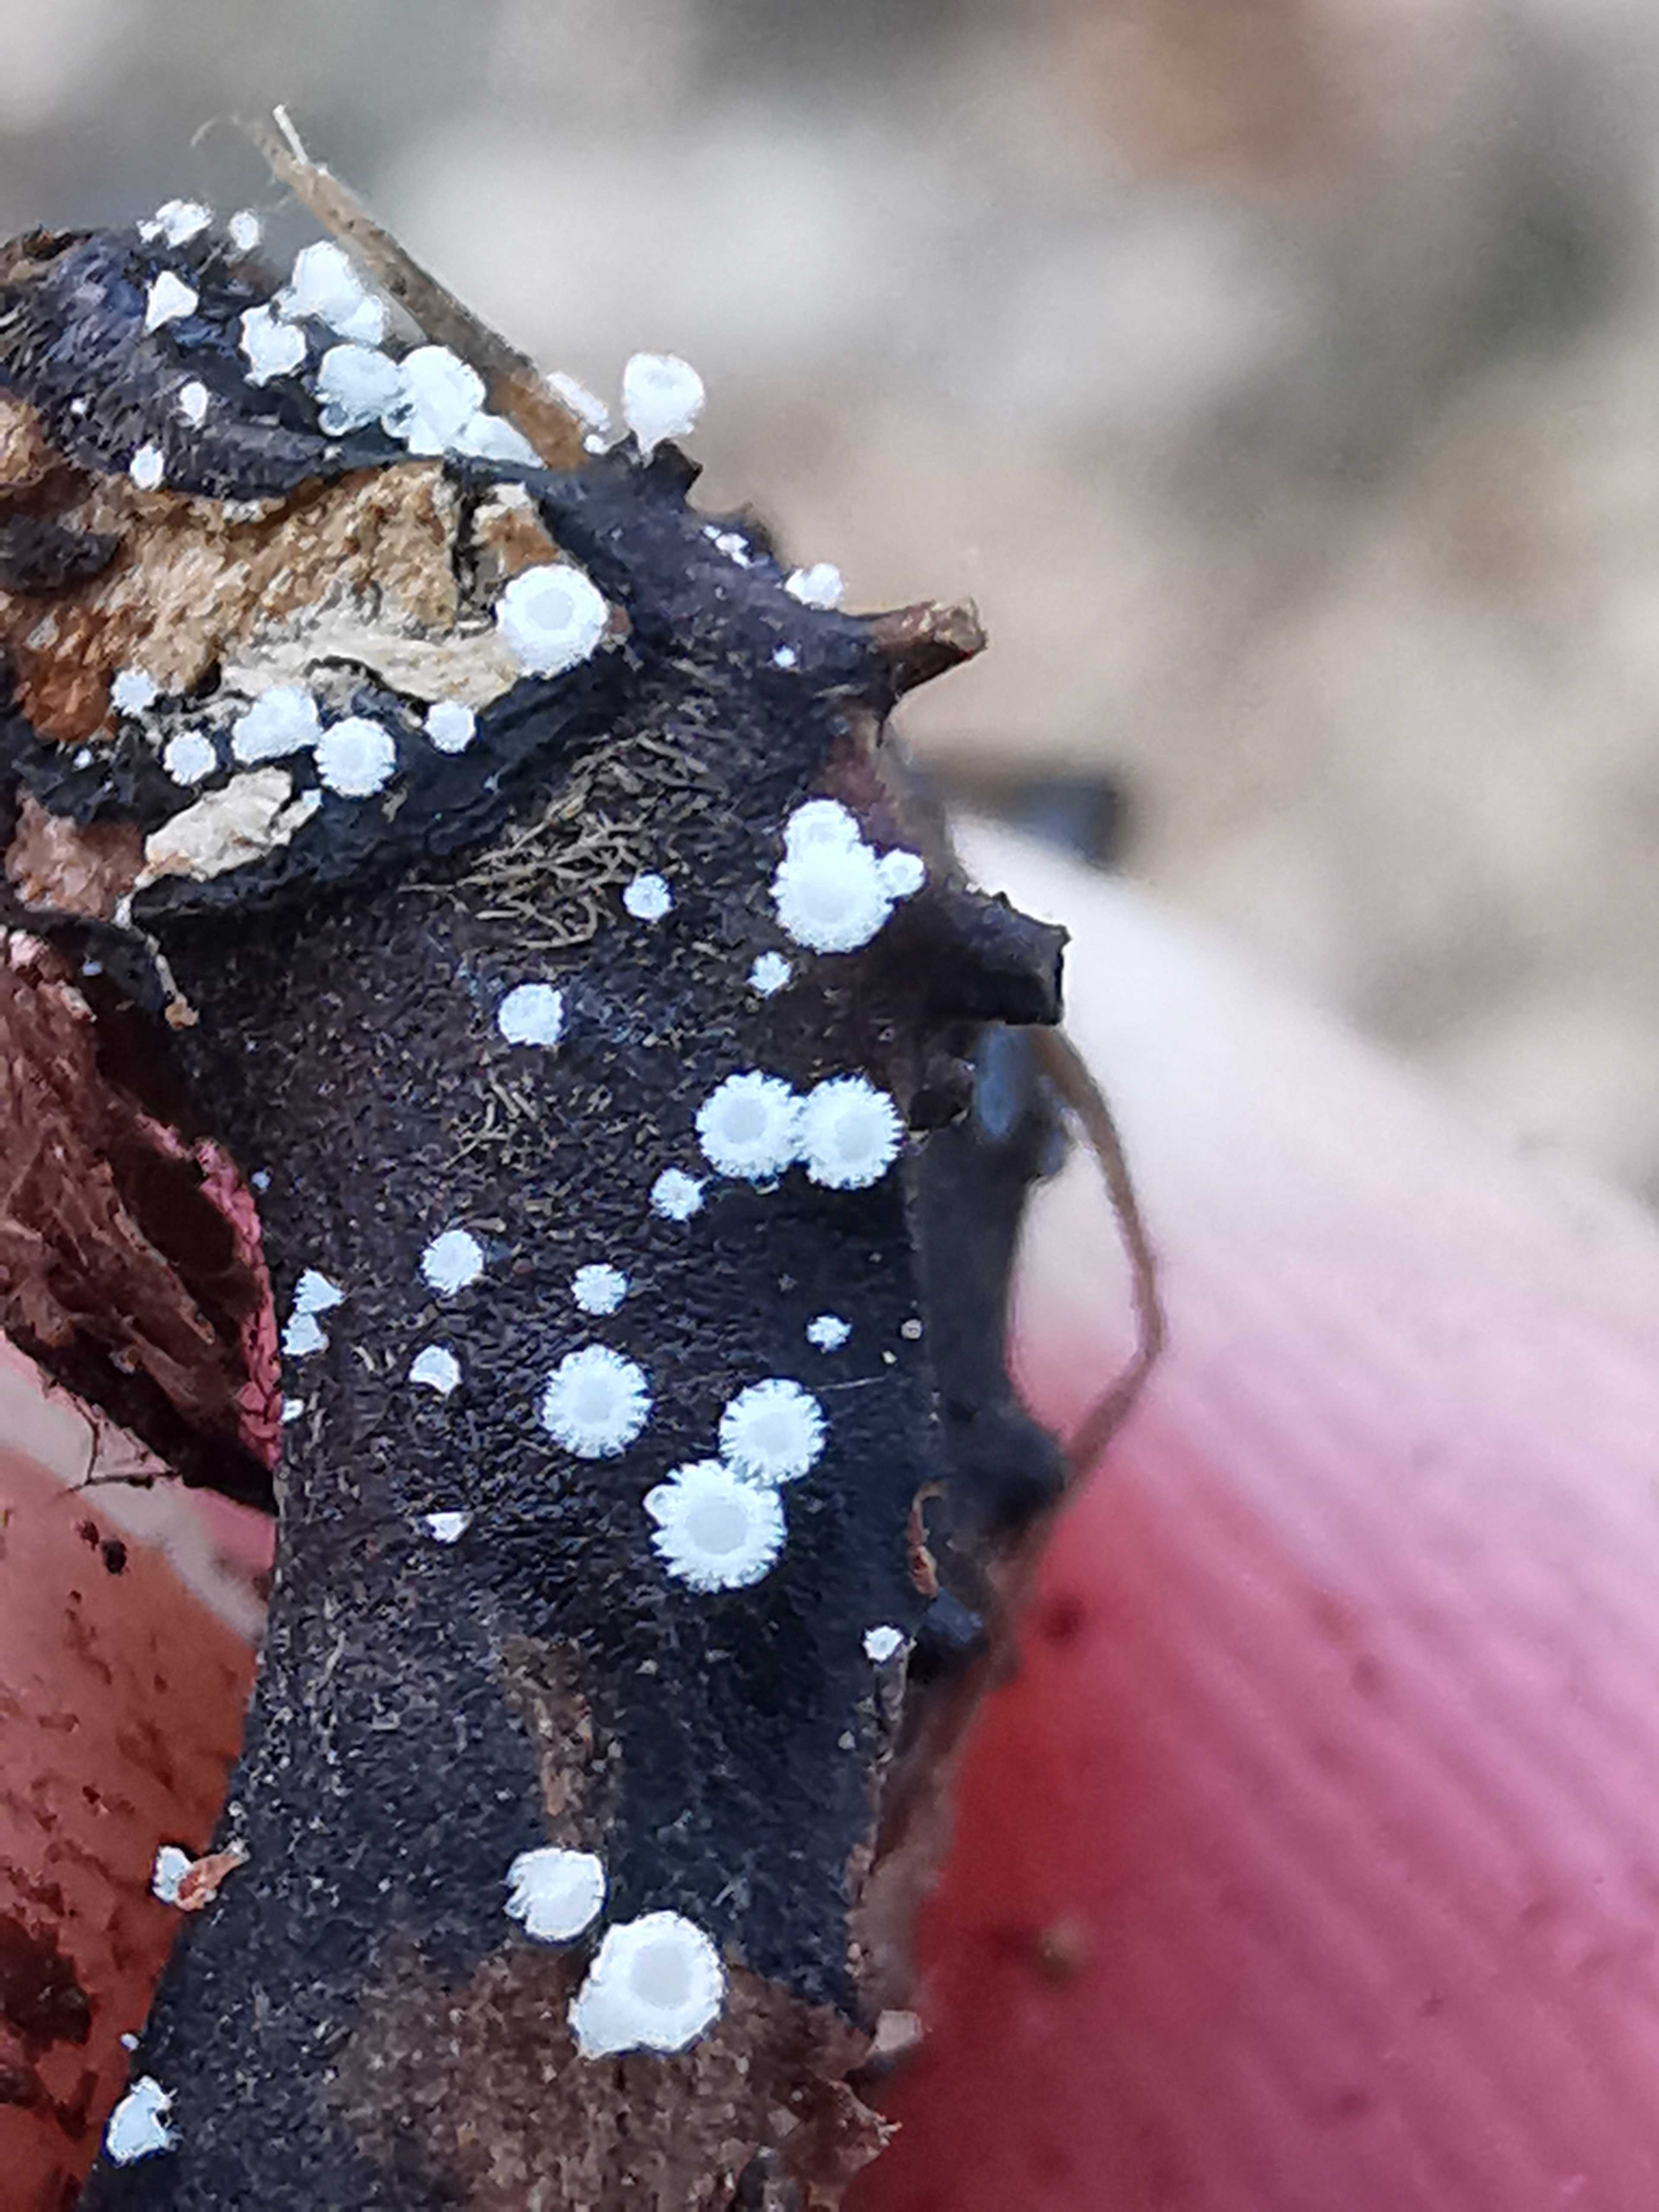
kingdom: Fungi
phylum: Ascomycota
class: Leotiomycetes
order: Helotiales
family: Lachnaceae
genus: Lachnum
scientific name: Lachnum virgineum
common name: jomfru-frynseskive
